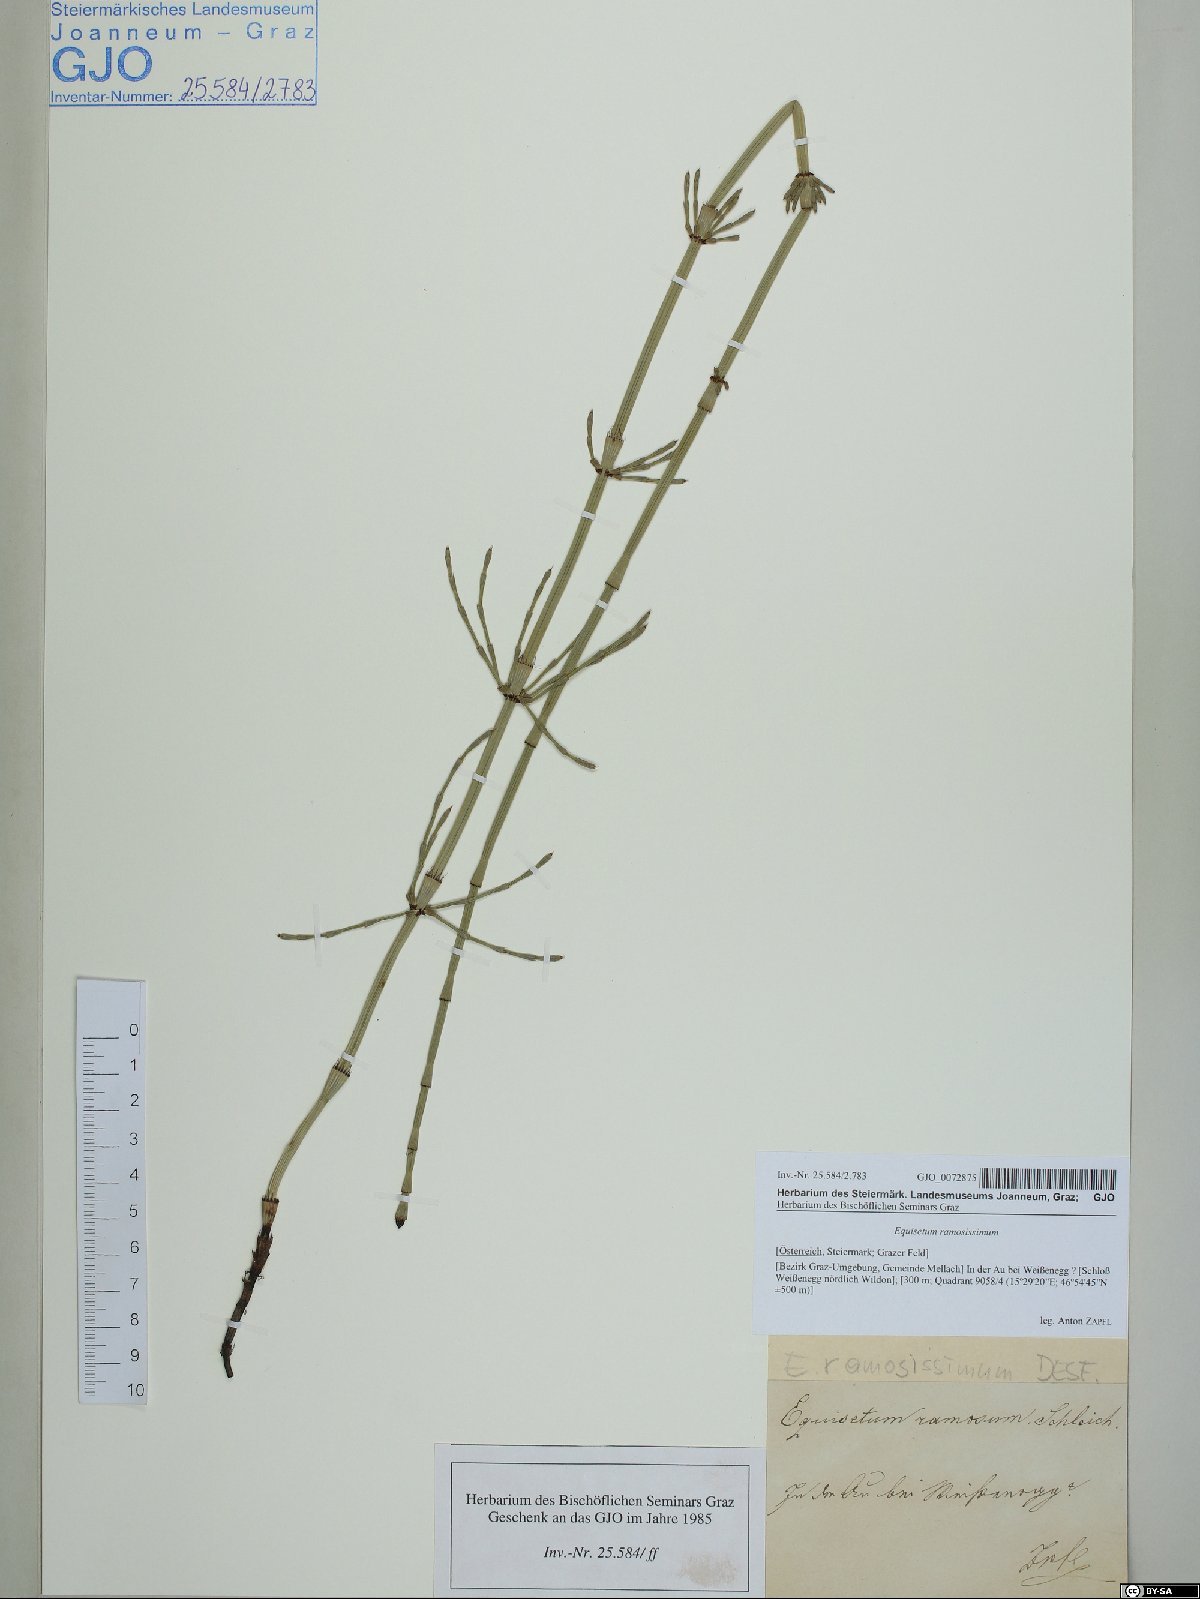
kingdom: Plantae
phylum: Tracheophyta
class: Polypodiopsida
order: Equisetales
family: Equisetaceae
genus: Equisetum
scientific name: Equisetum ramosissimum
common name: Branched horsetail
